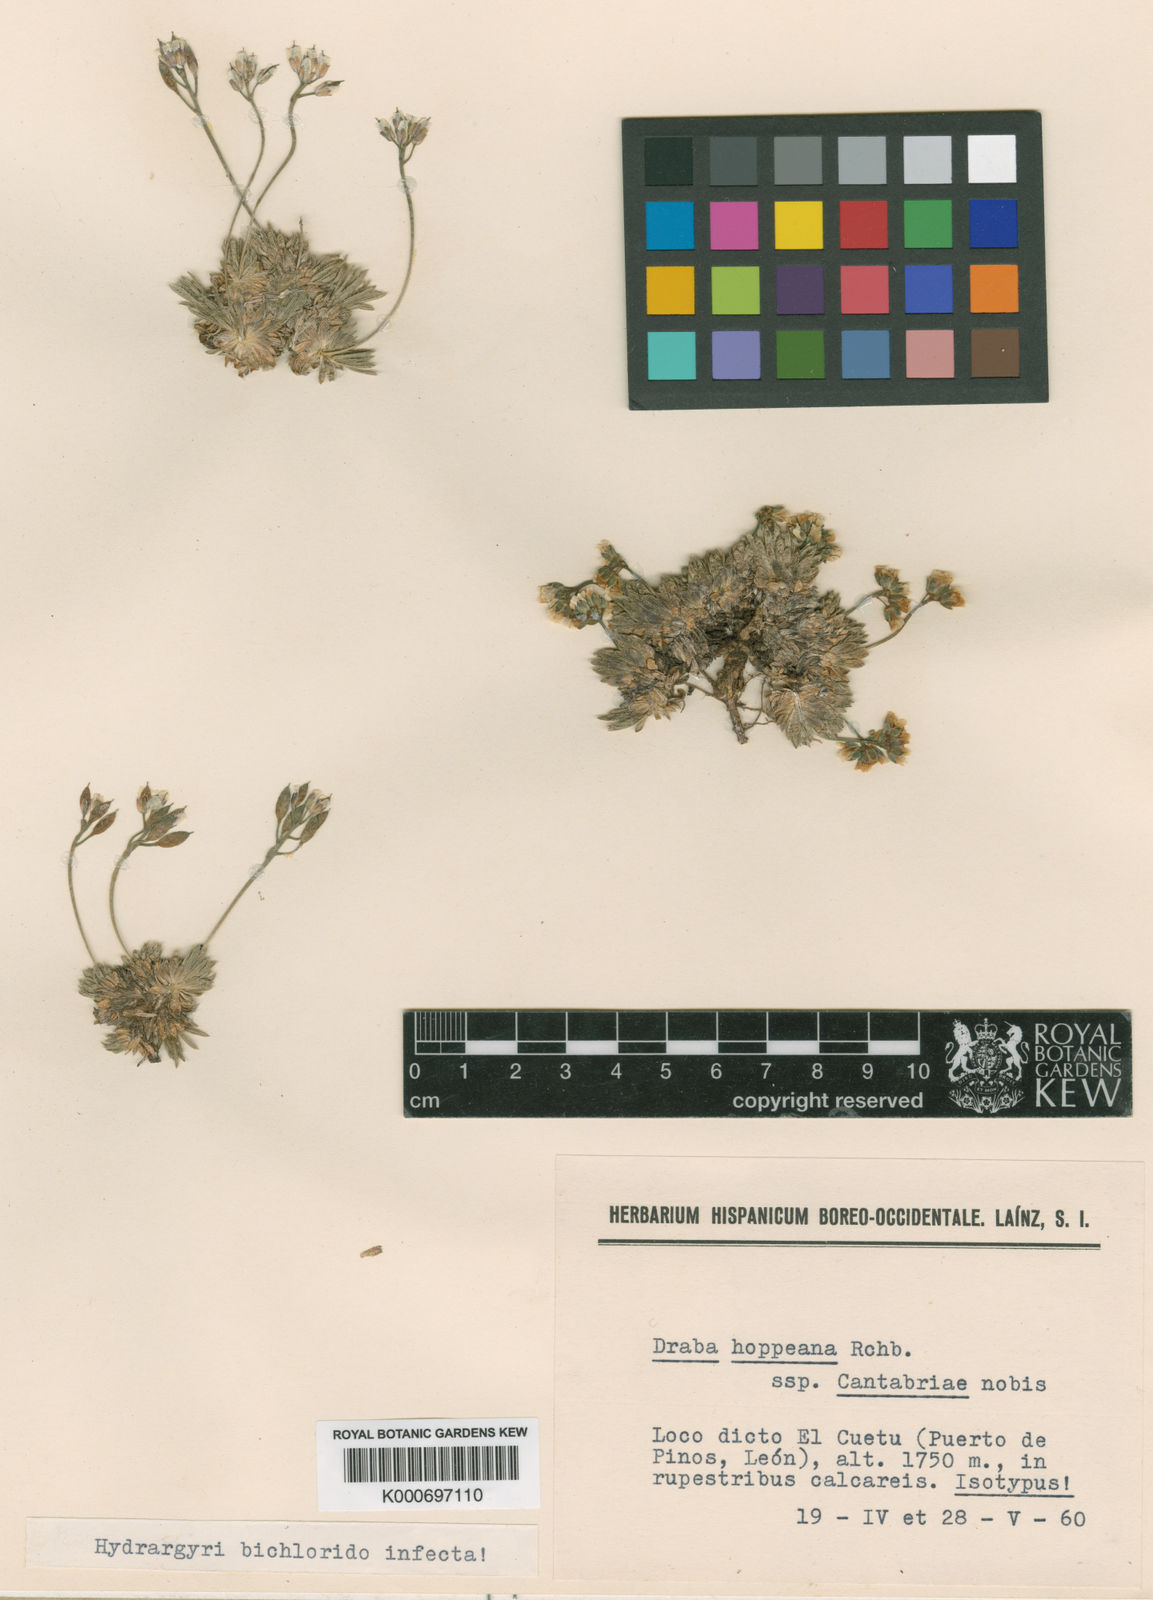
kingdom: Plantae
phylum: Tracheophyta
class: Magnoliopsida
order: Brassicales
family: Brassicaceae
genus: Draba
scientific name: Draba hoppeana
